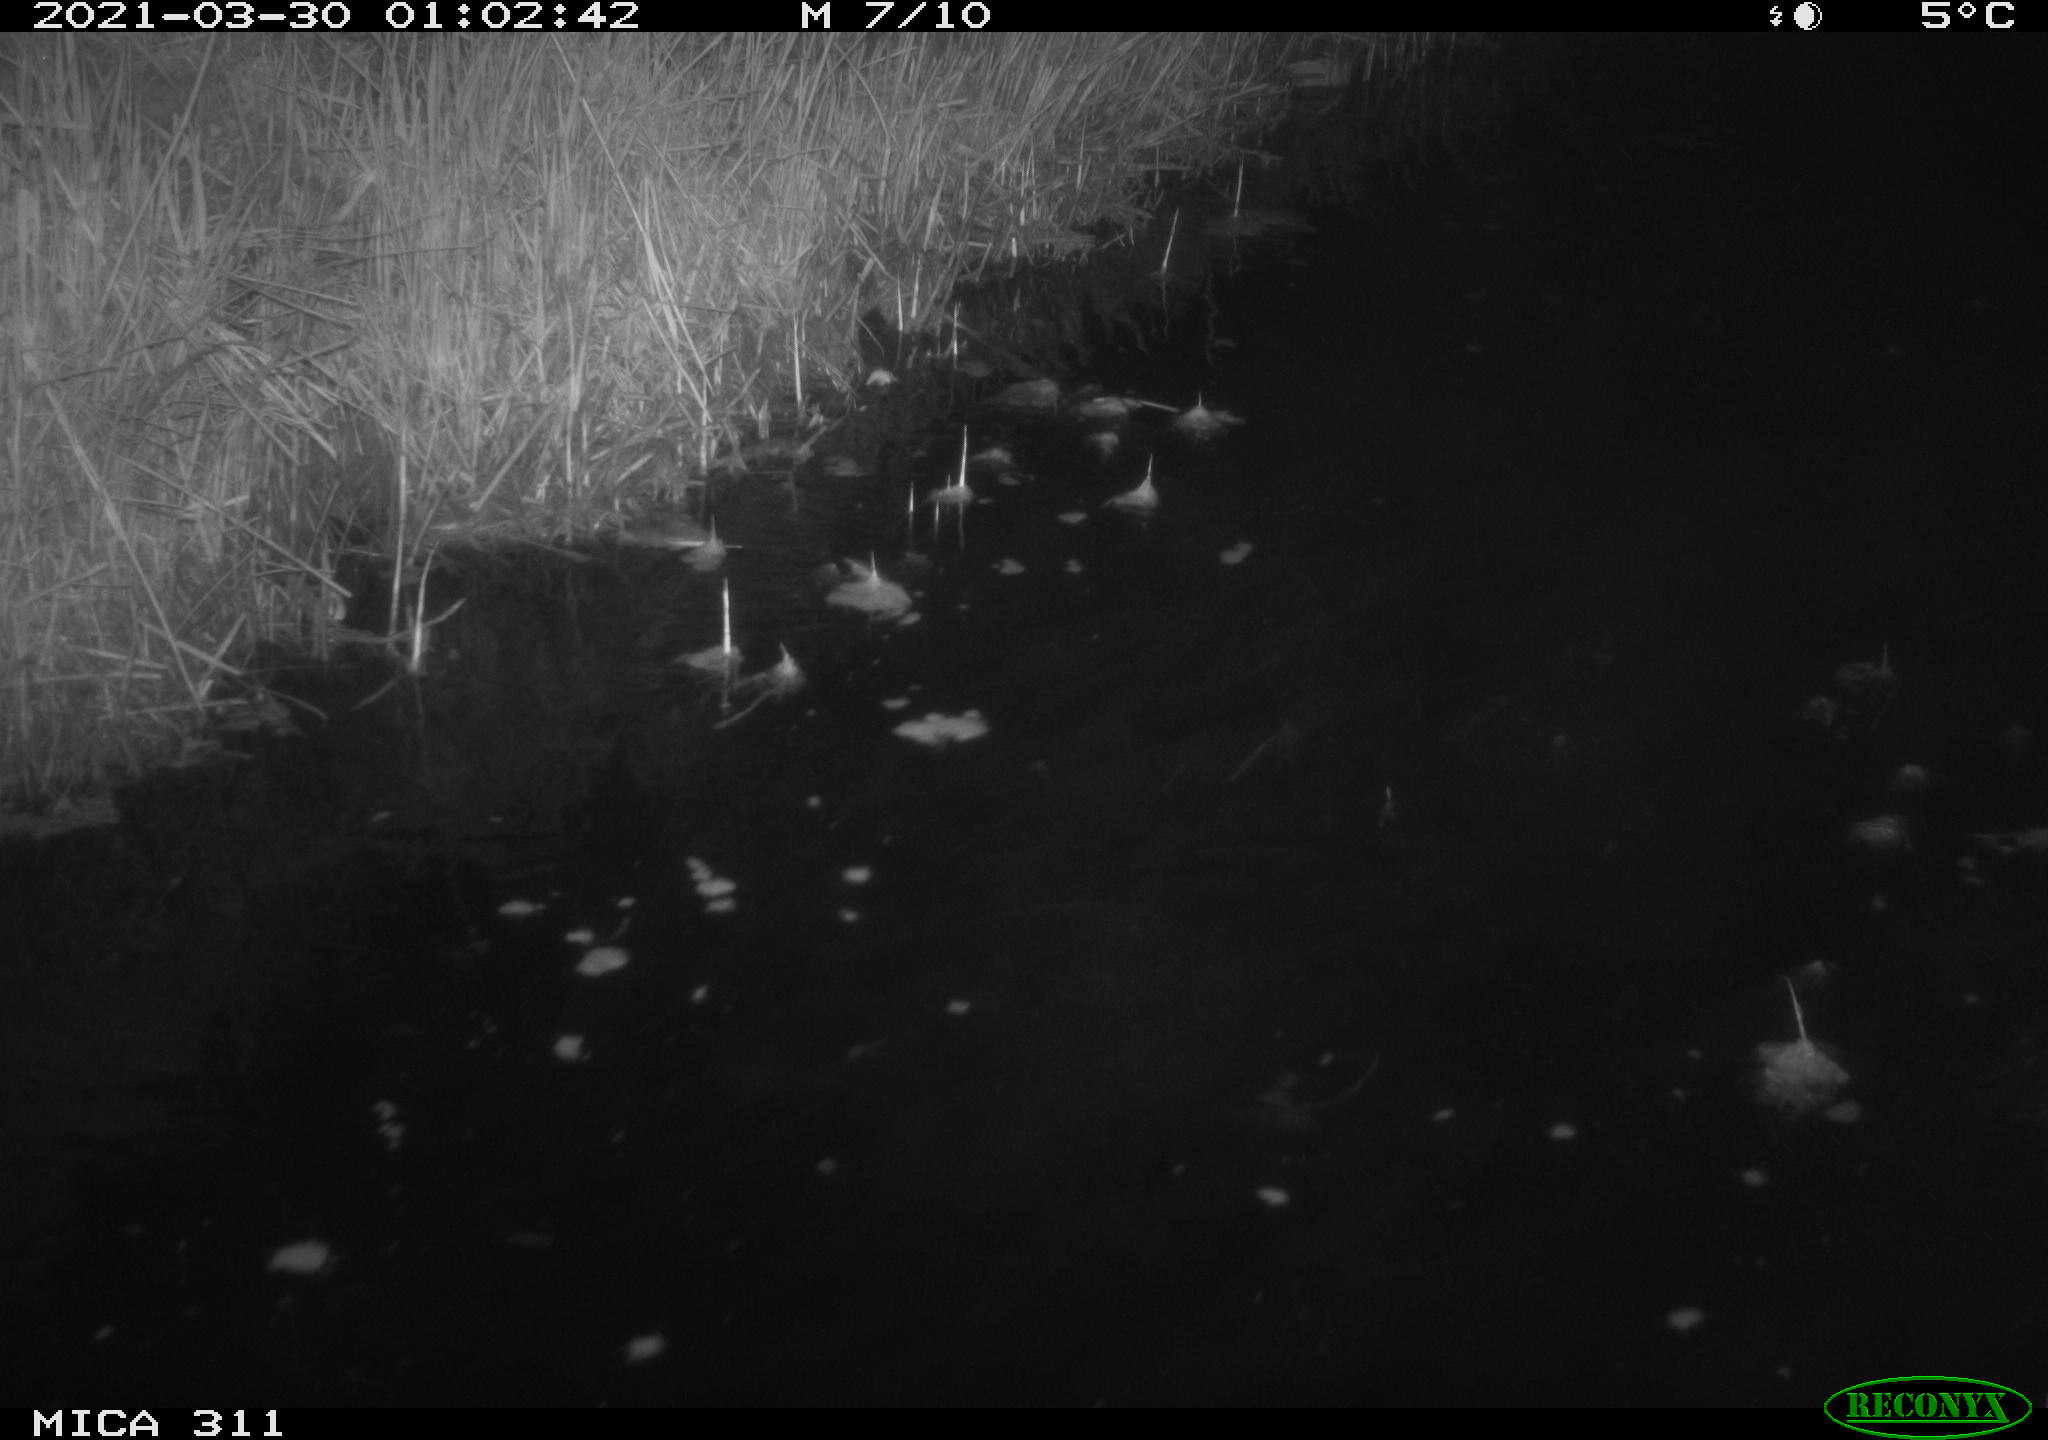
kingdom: Animalia
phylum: Chordata
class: Mammalia
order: Rodentia
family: Cricetidae
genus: Ondatra
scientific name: Ondatra zibethicus
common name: Muskrat
